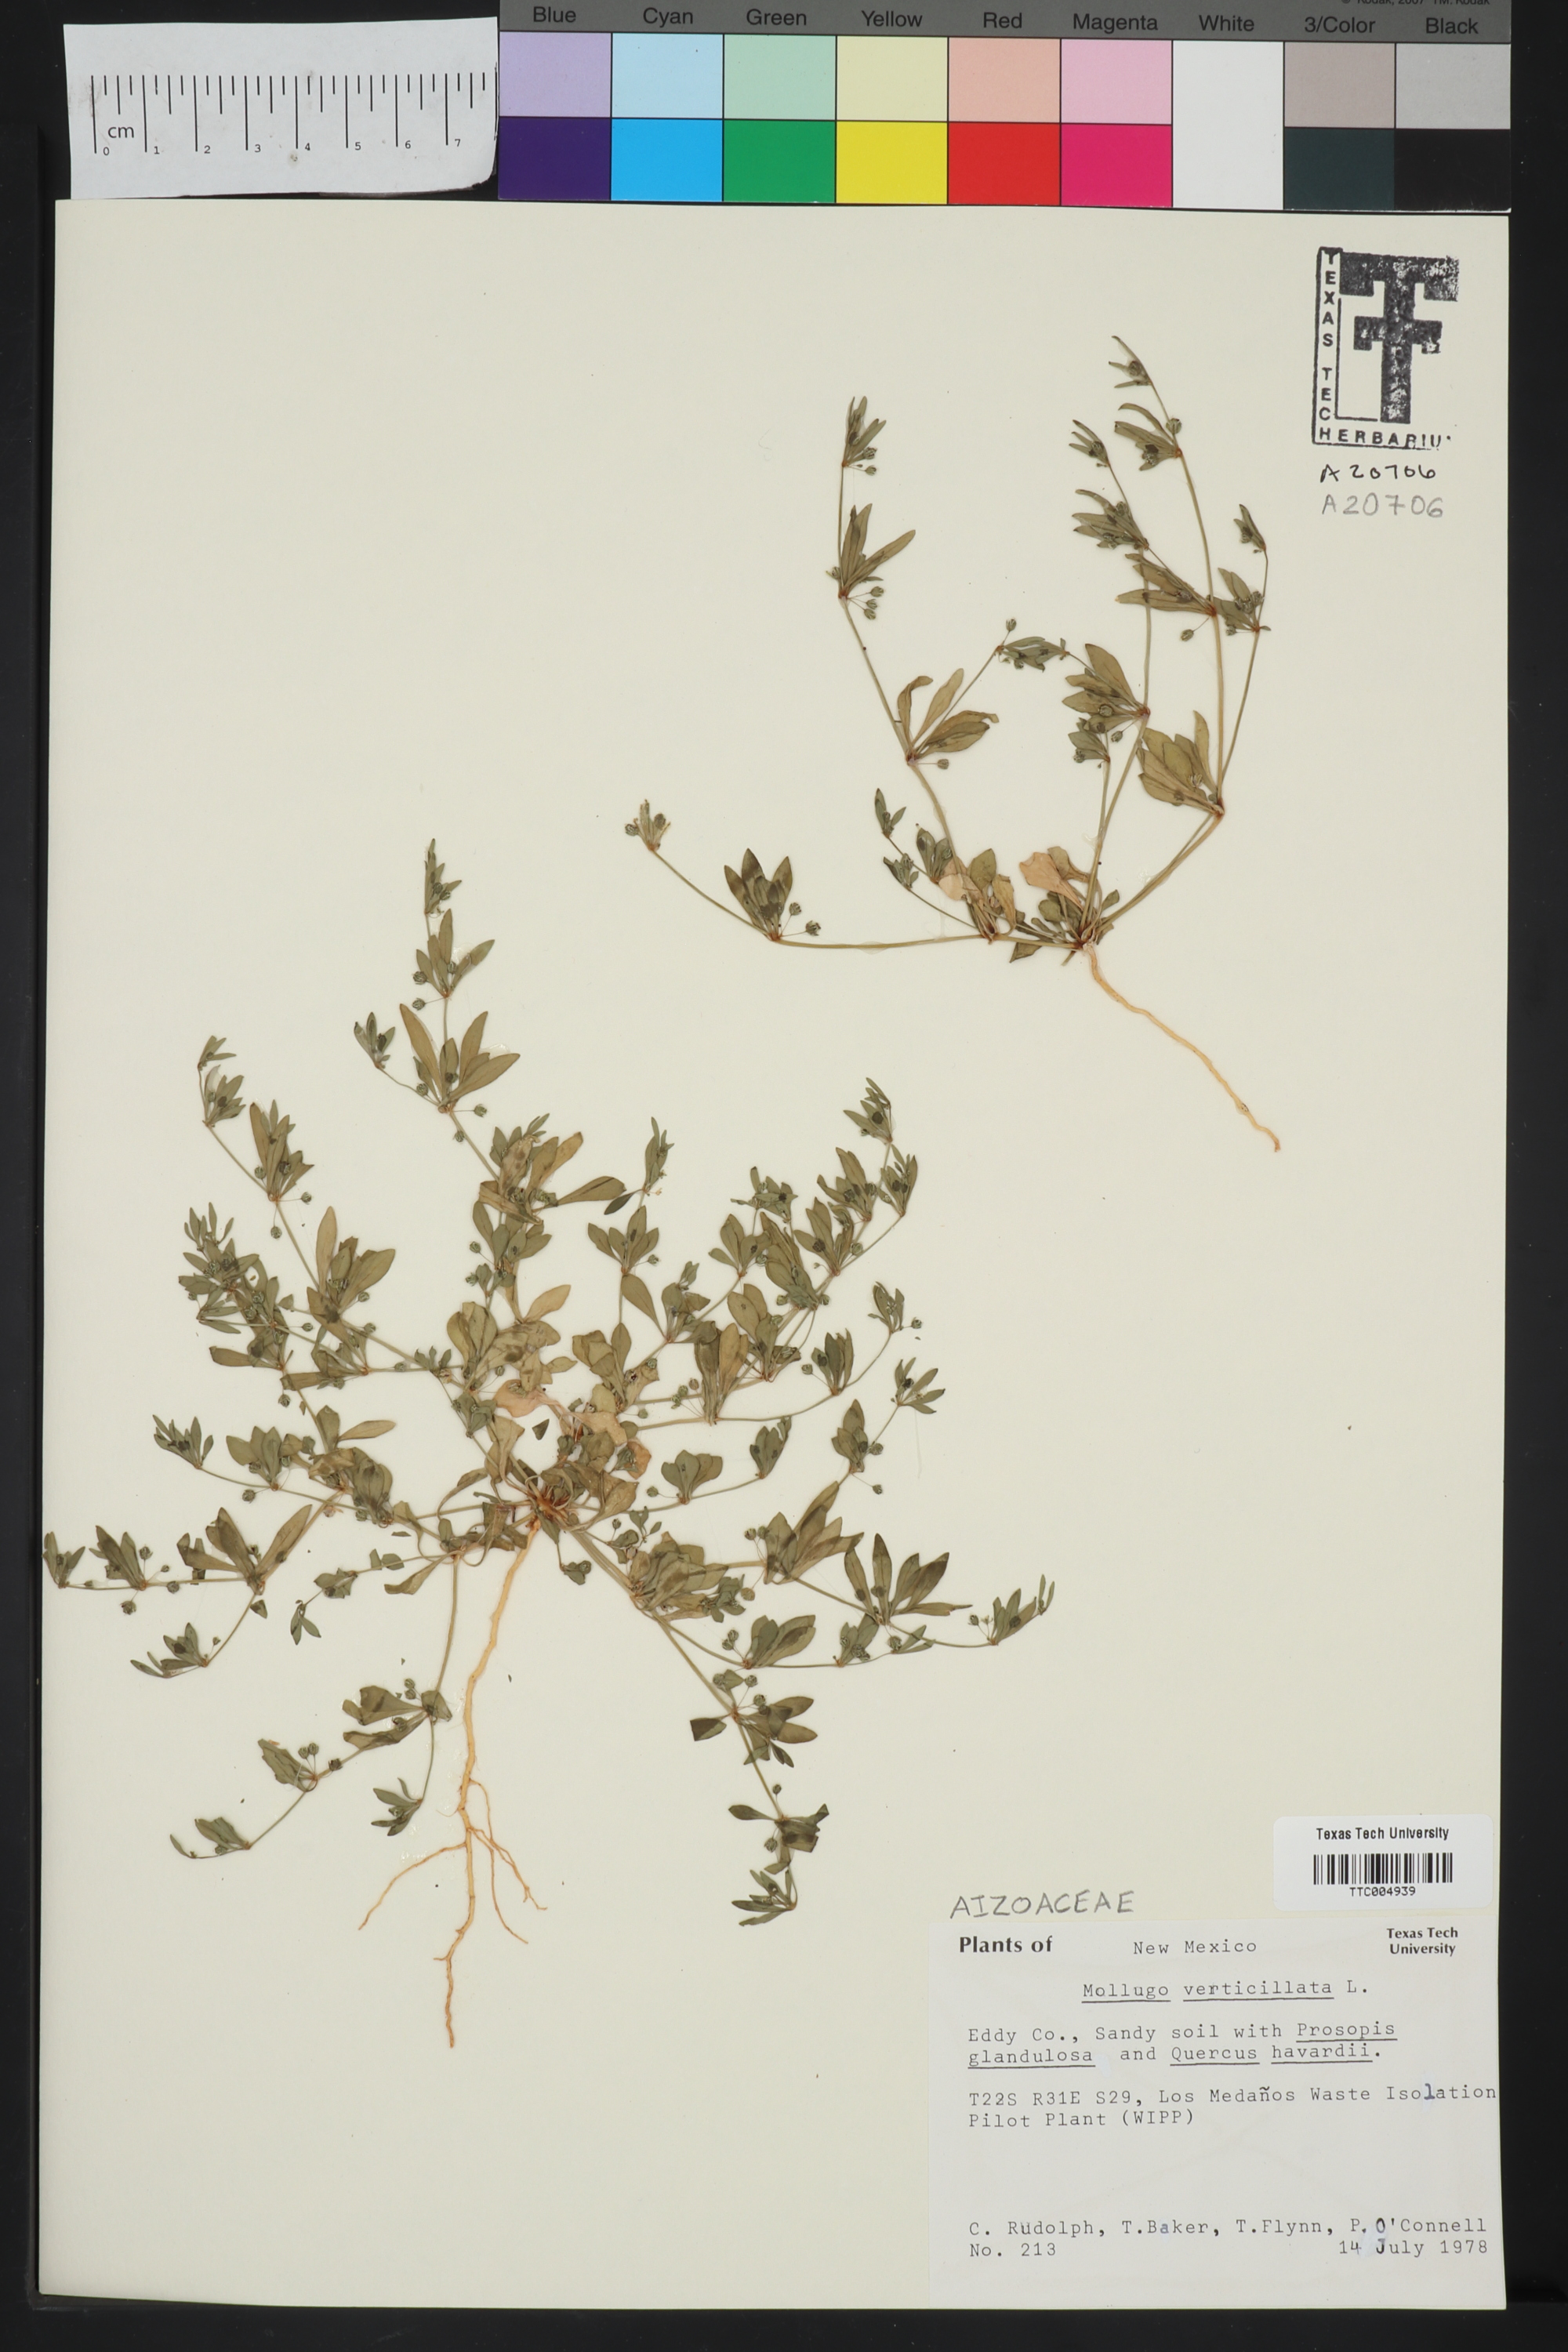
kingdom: Plantae
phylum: Tracheophyta
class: Magnoliopsida
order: Caryophyllales
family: Molluginaceae
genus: Mollugo
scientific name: Mollugo verticillata
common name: Green carpetweed
